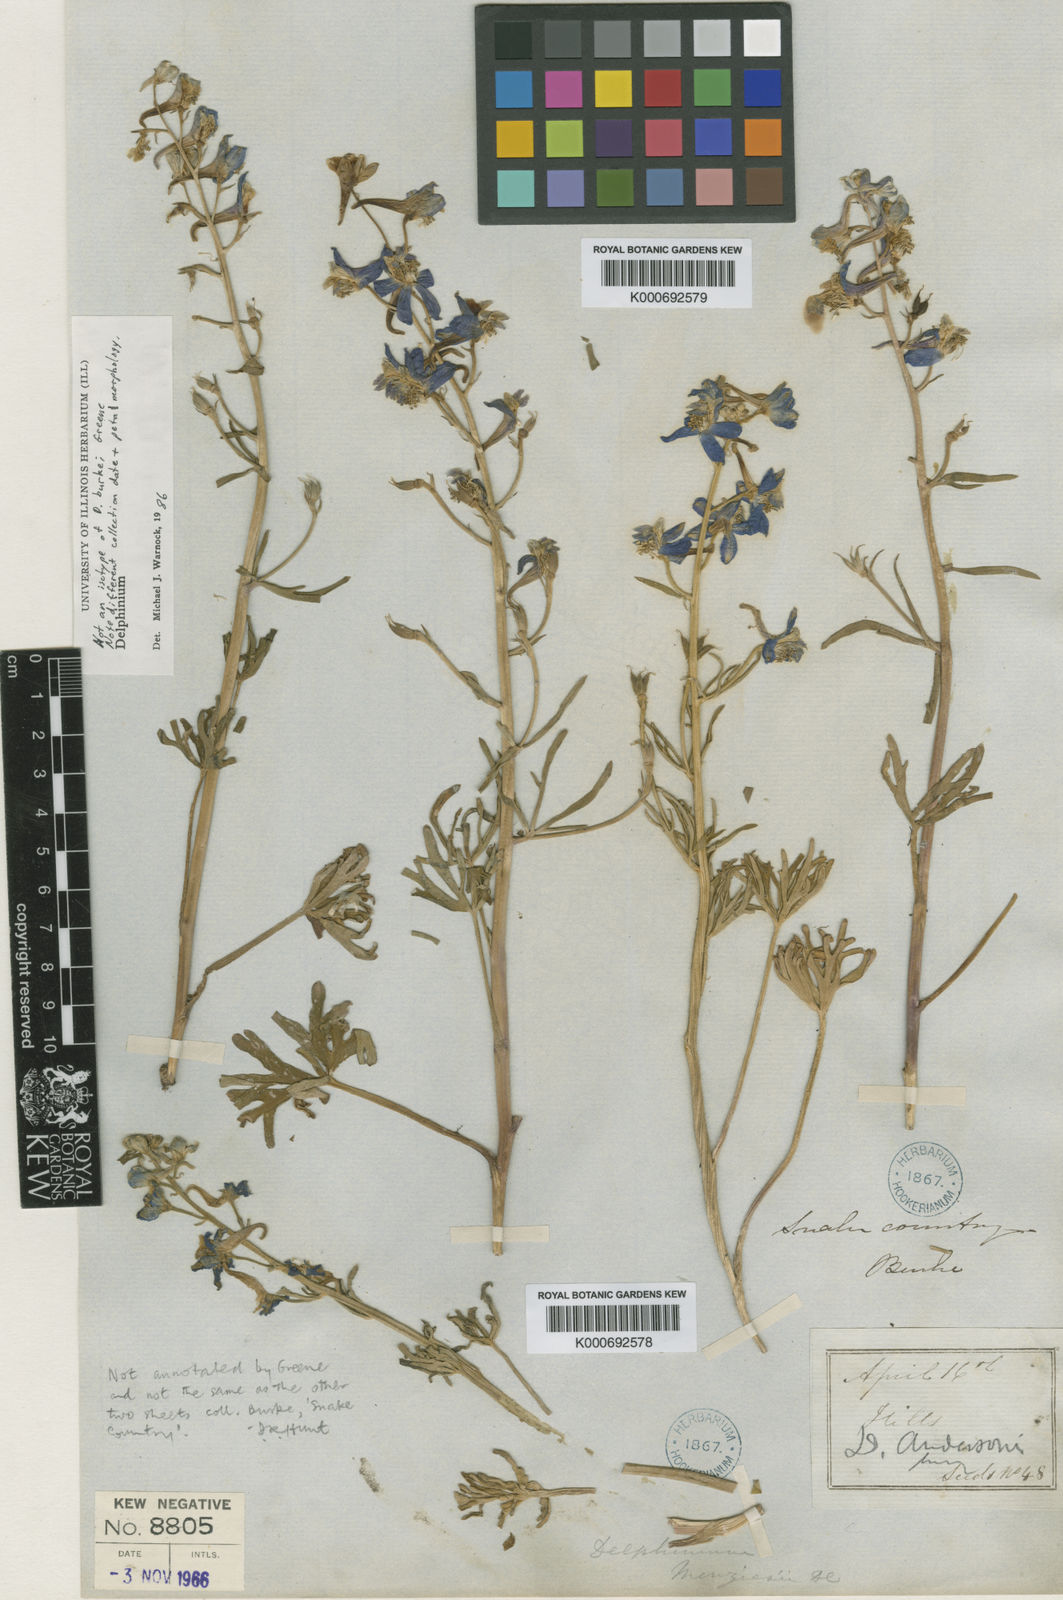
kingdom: Plantae
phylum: Tracheophyta
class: Magnoliopsida
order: Ranunculales
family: Ranunculaceae
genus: Delphinium
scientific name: Delphinium burkei
